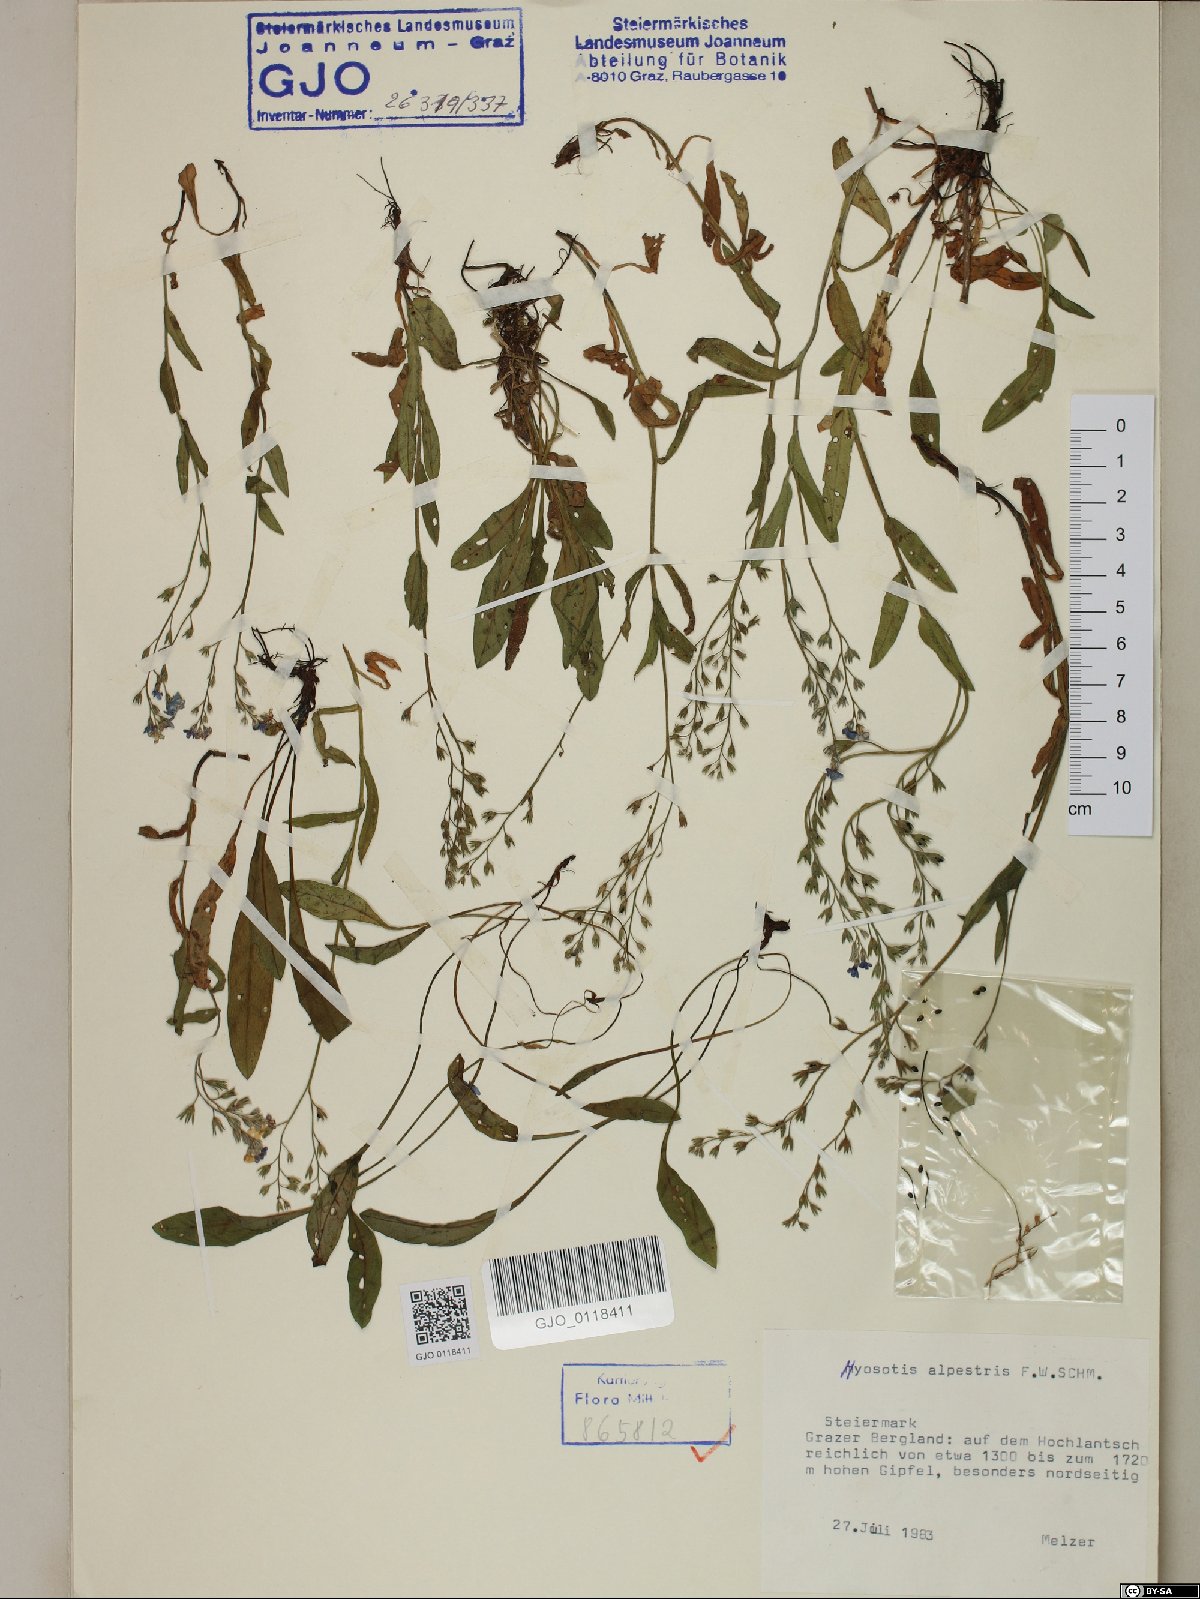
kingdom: Plantae
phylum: Tracheophyta
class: Magnoliopsida
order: Boraginales
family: Boraginaceae
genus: Myosotis
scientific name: Myosotis alpestris
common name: Alpine forget-me-not
